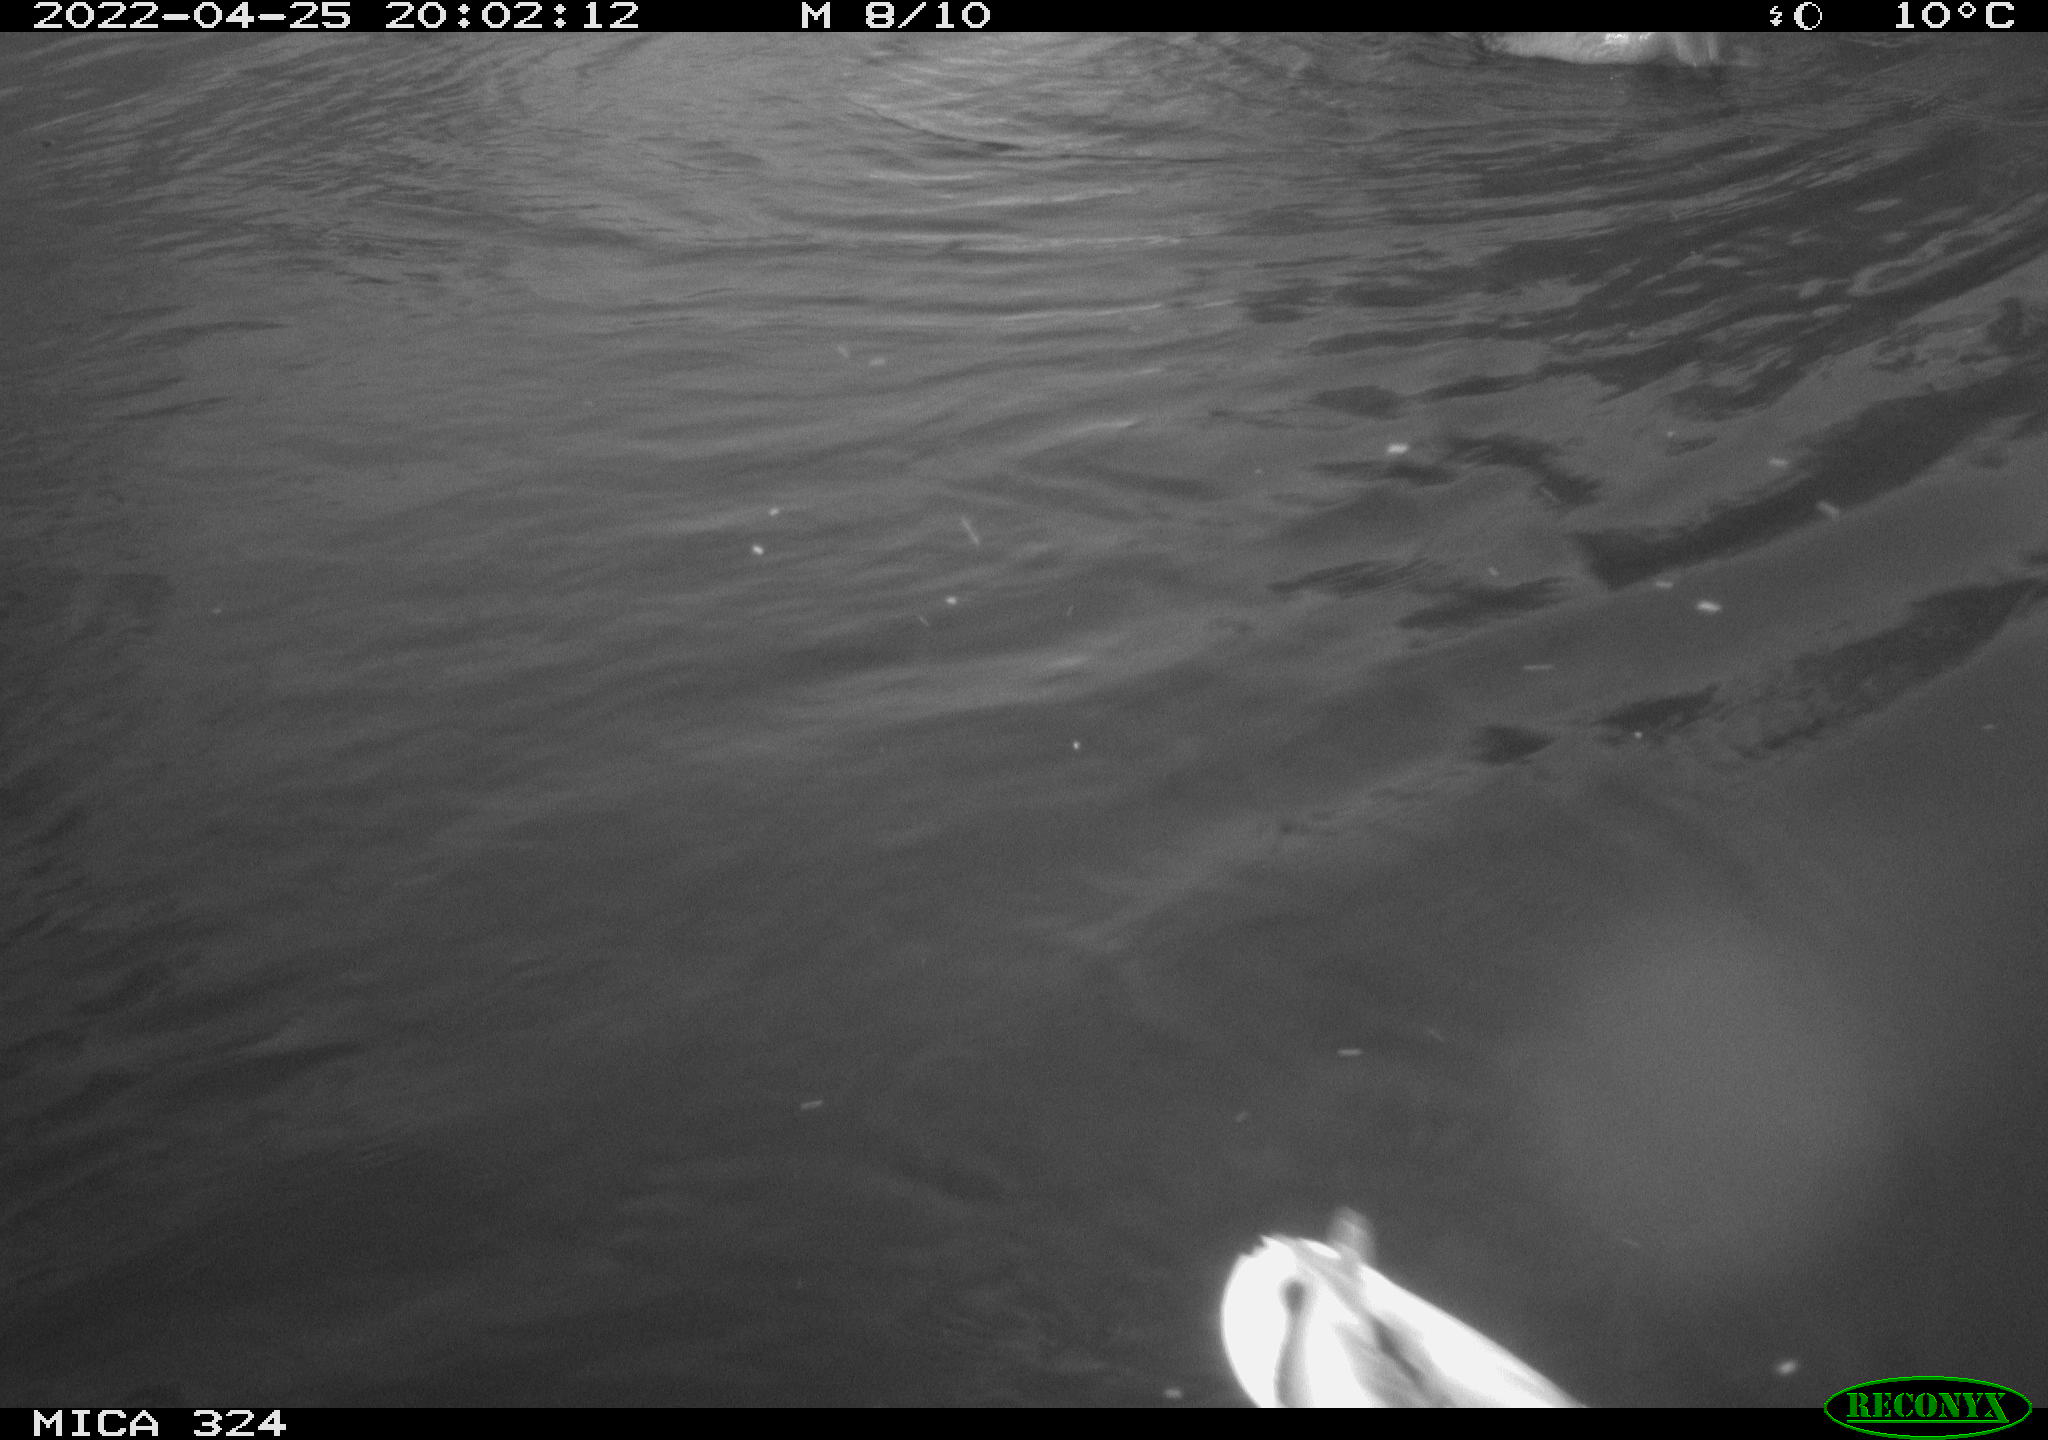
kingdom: Animalia
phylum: Chordata
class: Aves
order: Anseriformes
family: Anatidae
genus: Anas
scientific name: Anas platyrhynchos
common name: Mallard
